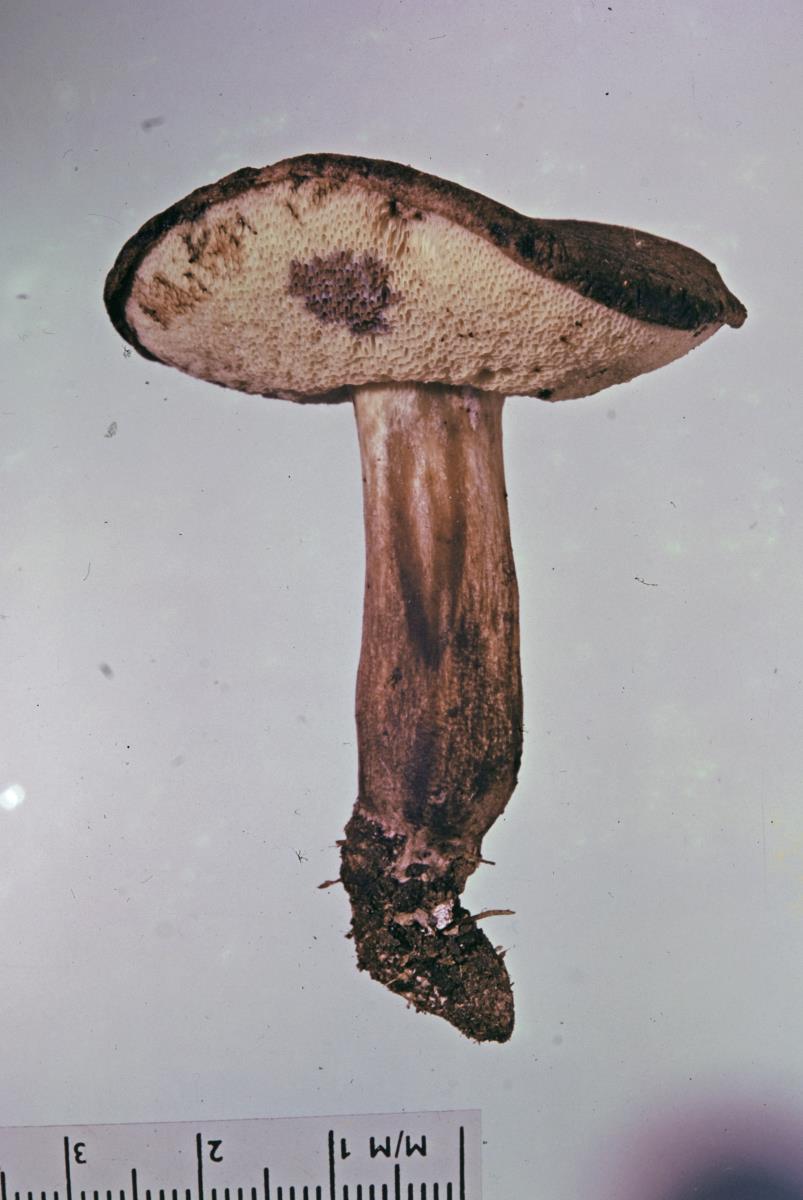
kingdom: Fungi
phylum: Basidiomycota
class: Agaricomycetes
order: Boletales
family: Boletaceae
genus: Porphyrellus
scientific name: Porphyrellus brunneus
